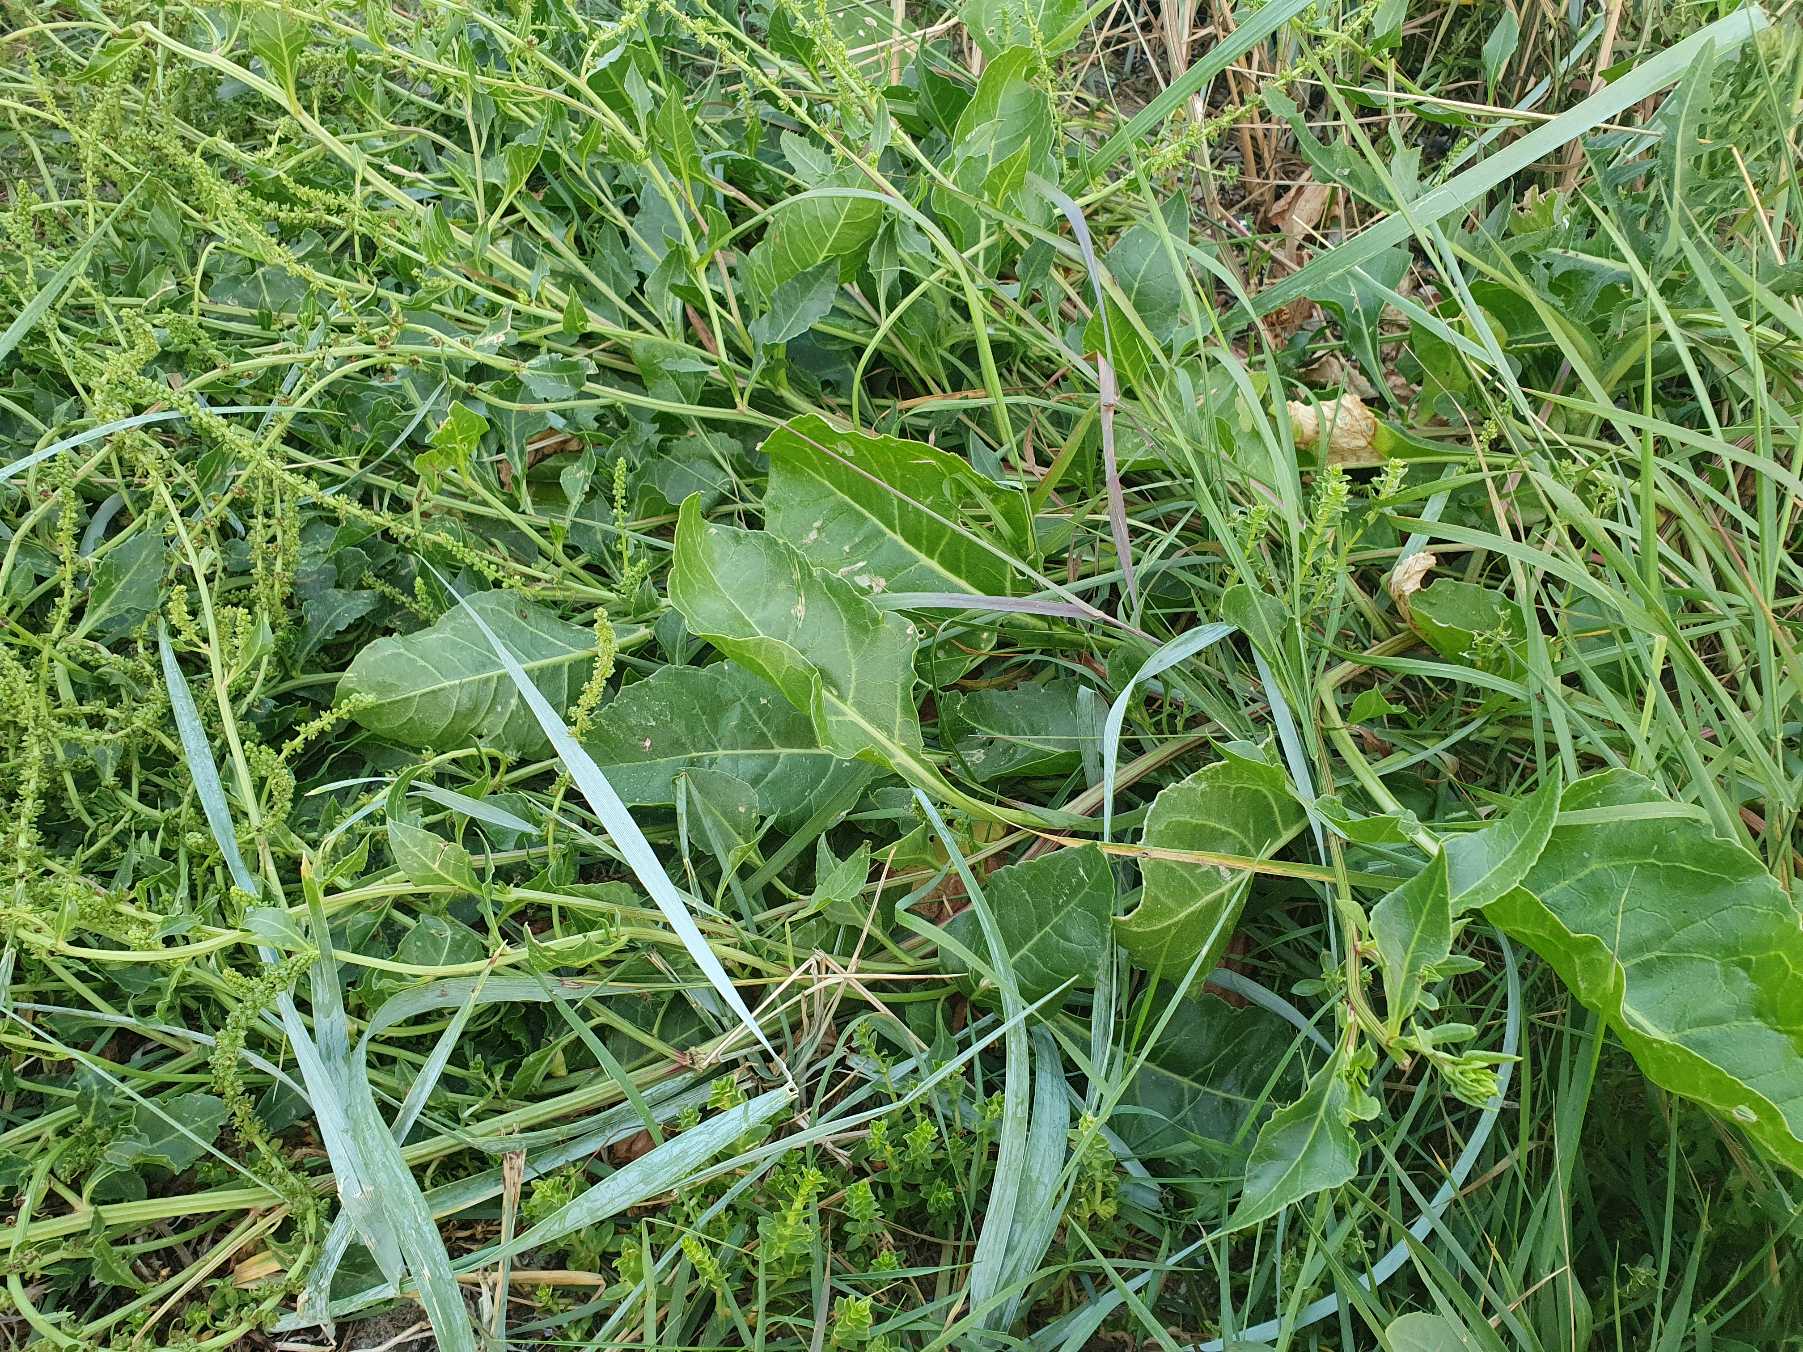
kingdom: Plantae
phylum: Tracheophyta
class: Magnoliopsida
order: Caryophyllales
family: Amaranthaceae
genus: Beta
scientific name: Beta maritima
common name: Strand-bede
